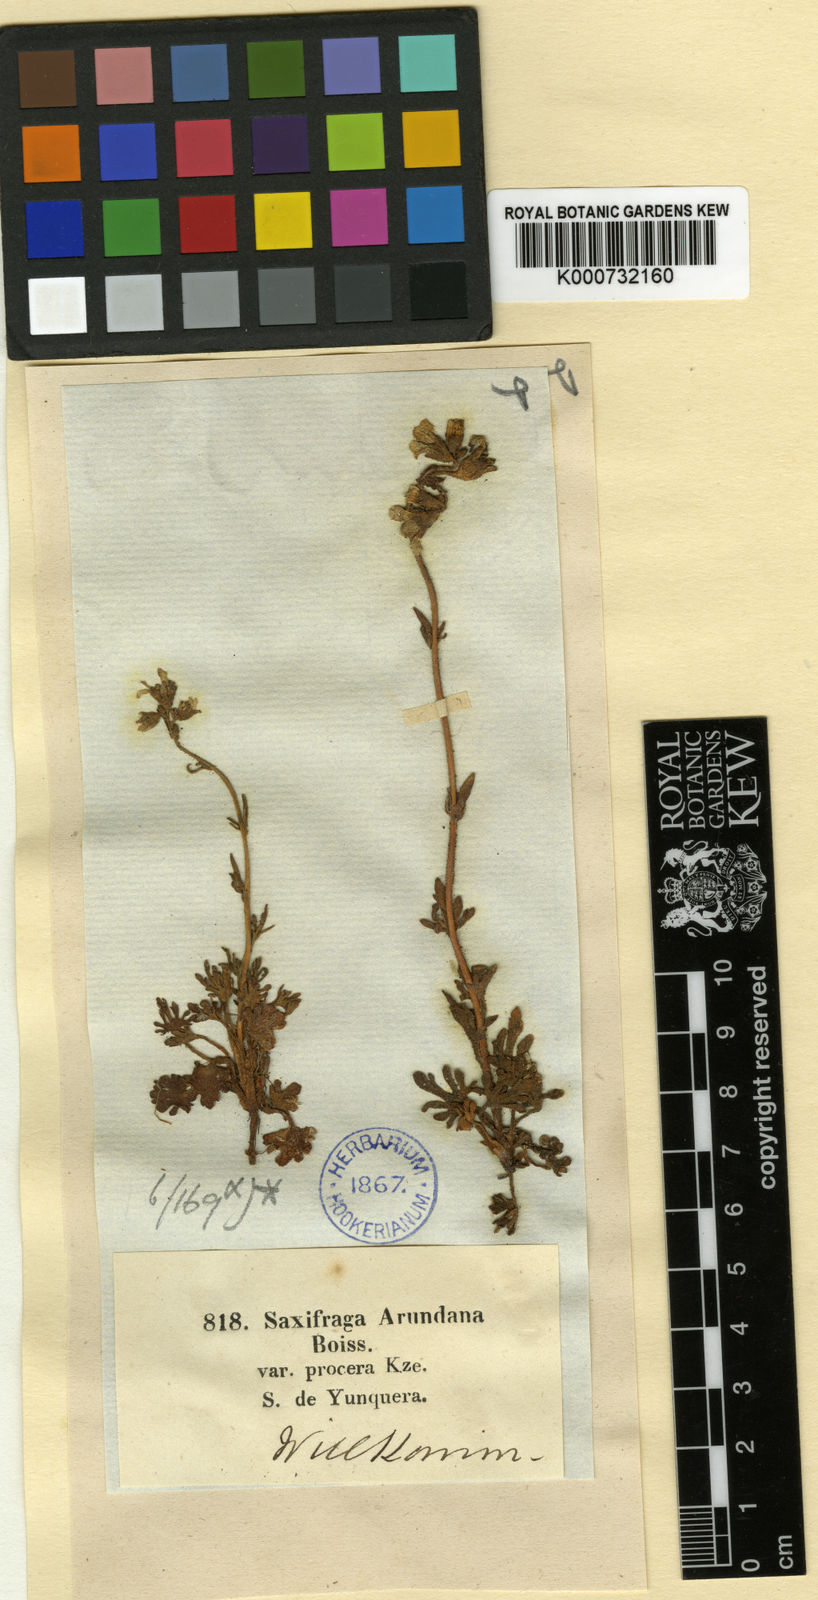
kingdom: Plantae
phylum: Tracheophyta
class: Magnoliopsida
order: Saxifragales
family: Saxifragaceae
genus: Saxifraga
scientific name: Saxifraga
